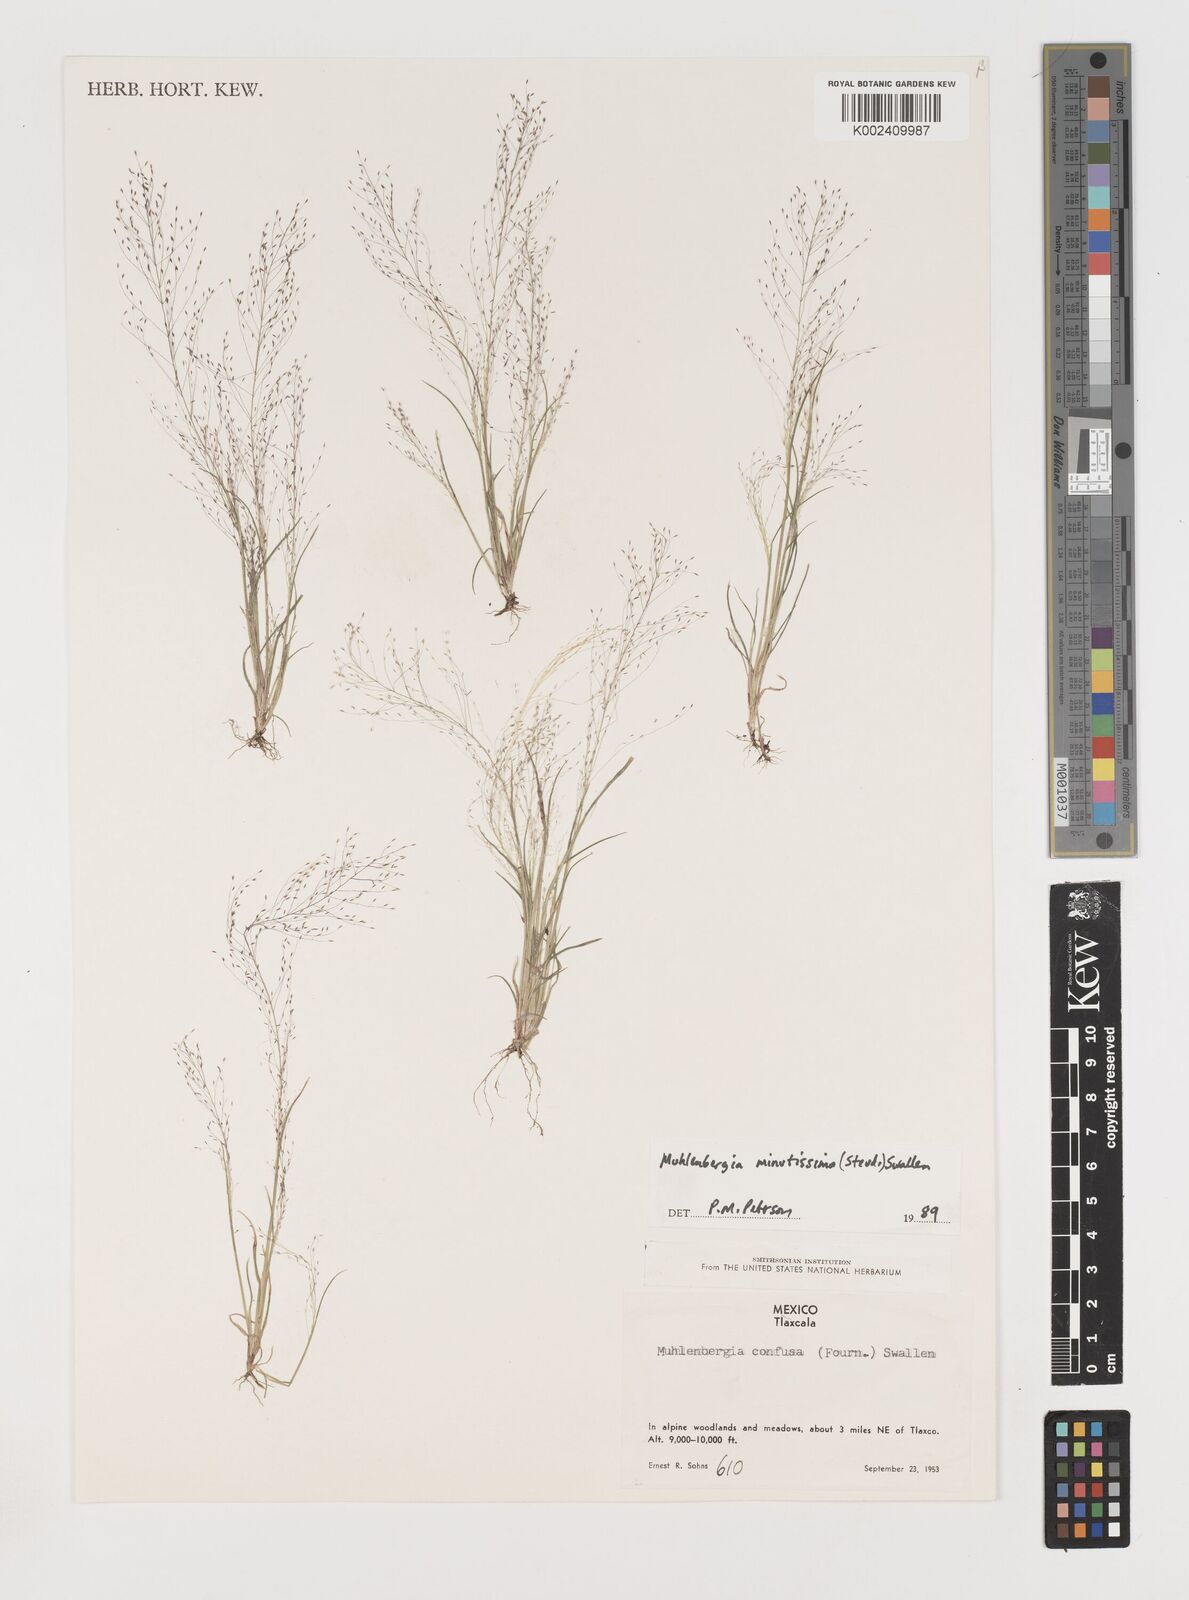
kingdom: Plantae
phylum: Tracheophyta
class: Liliopsida
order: Poales
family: Poaceae
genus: Muhlenbergia
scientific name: Muhlenbergia minutissima
